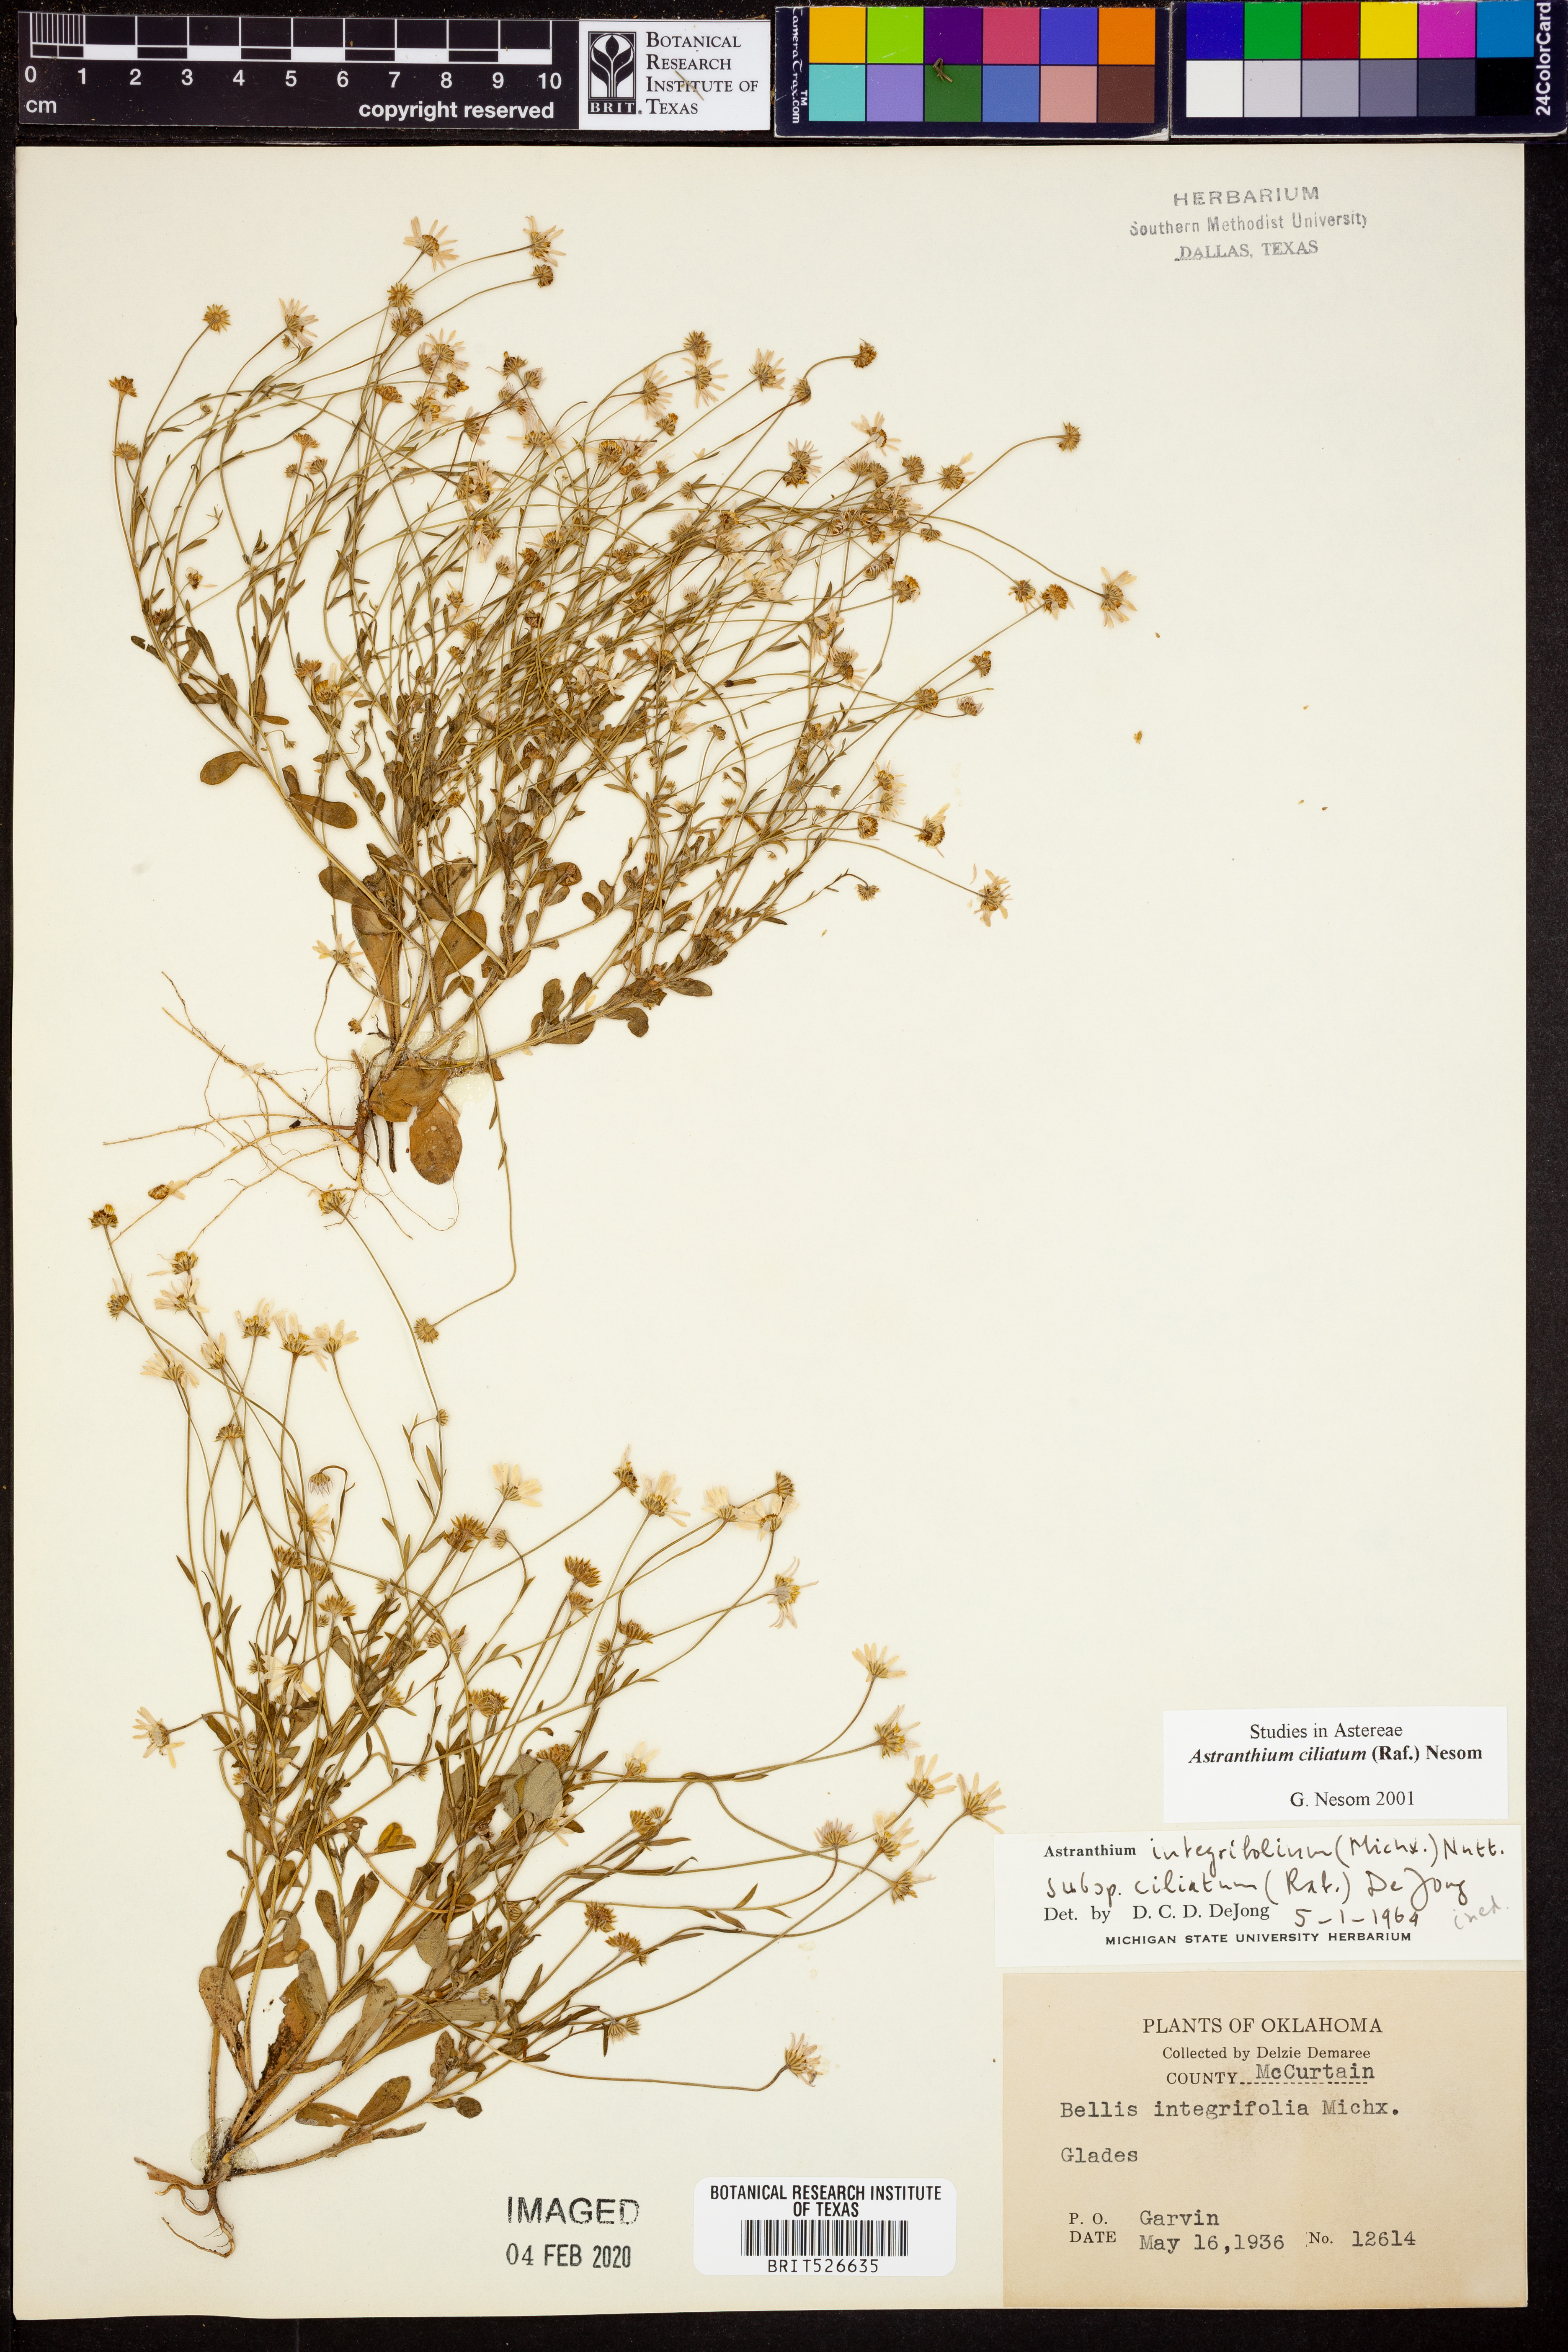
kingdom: Plantae
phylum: Tracheophyta
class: Magnoliopsida
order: Asterales
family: Asteraceae
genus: Astranthium
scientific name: Astranthium ciliatum
